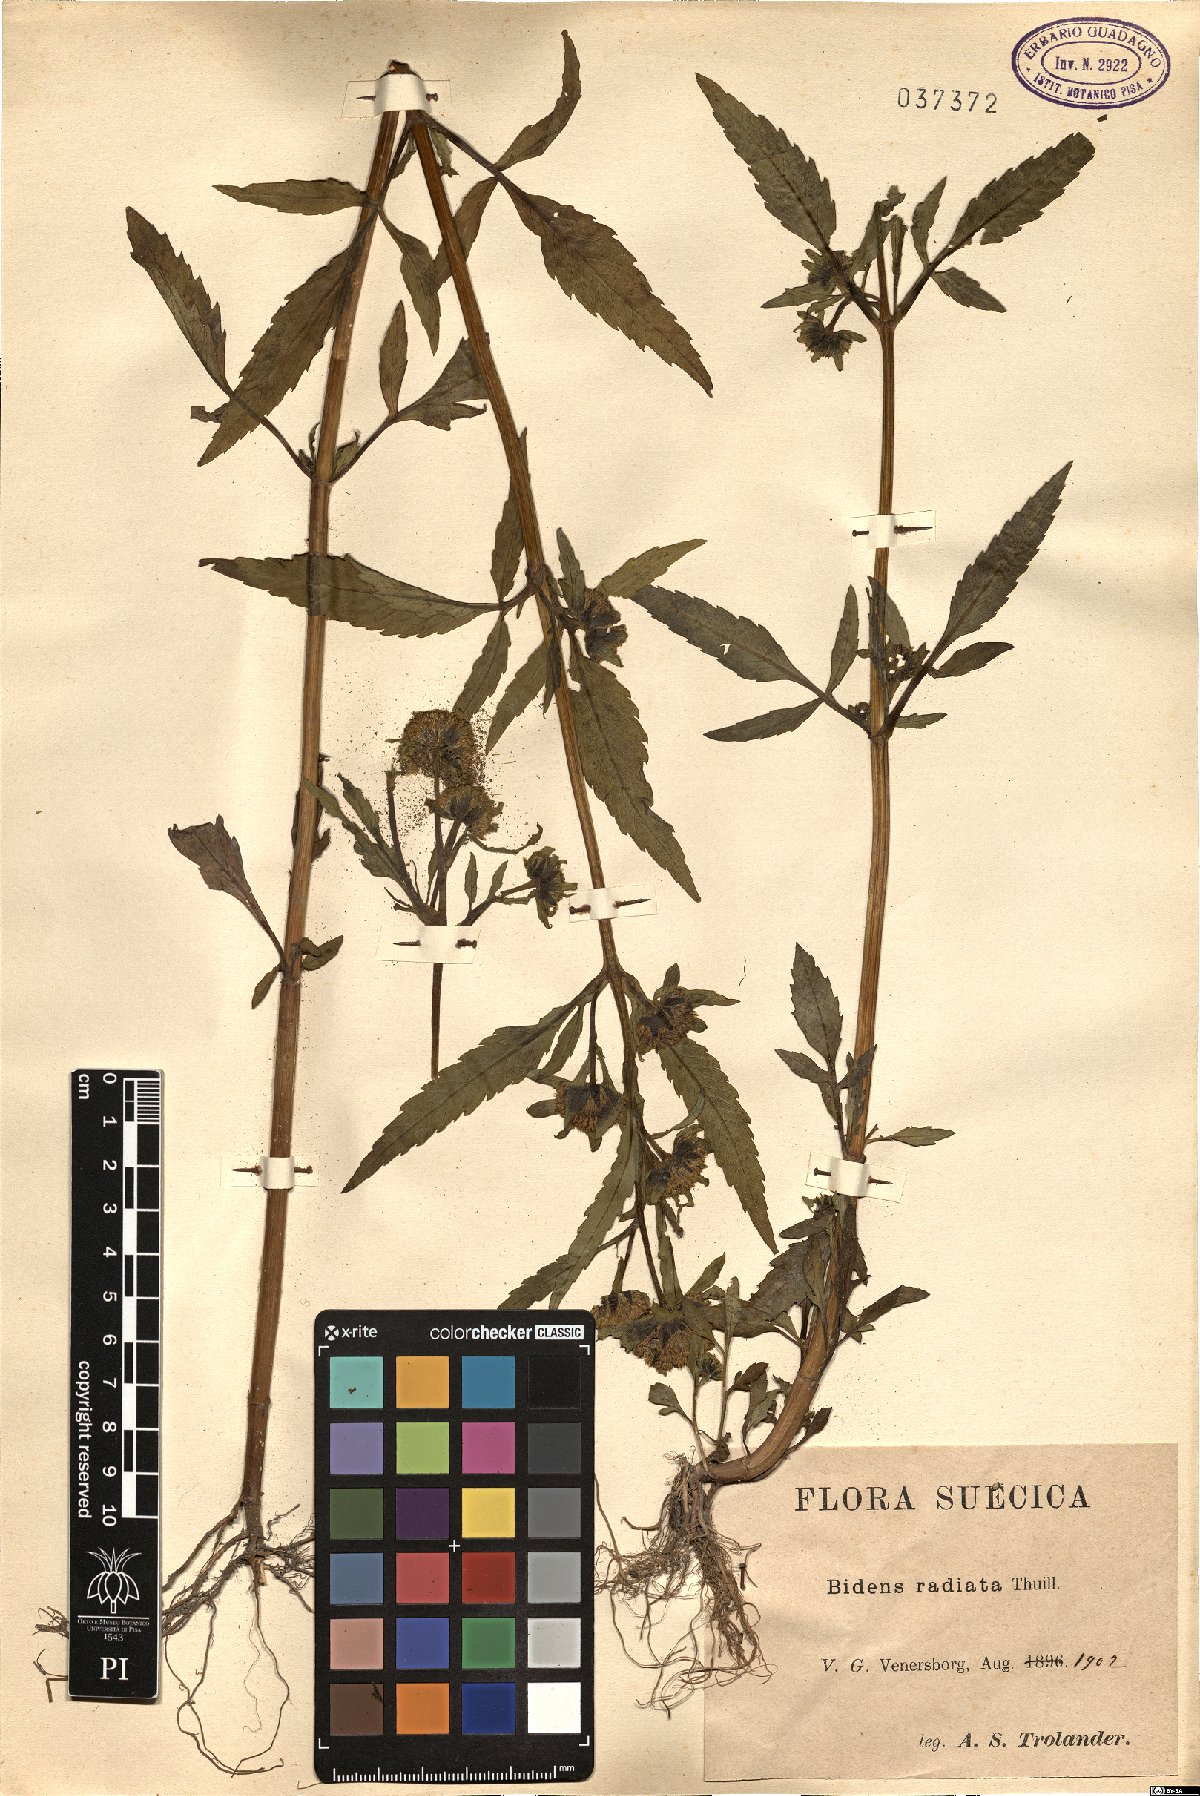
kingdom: Plantae
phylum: Tracheophyta
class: Magnoliopsida
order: Asterales
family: Asteraceae
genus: Bidens
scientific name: Bidens radiata
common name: Radiating bur-marigold
